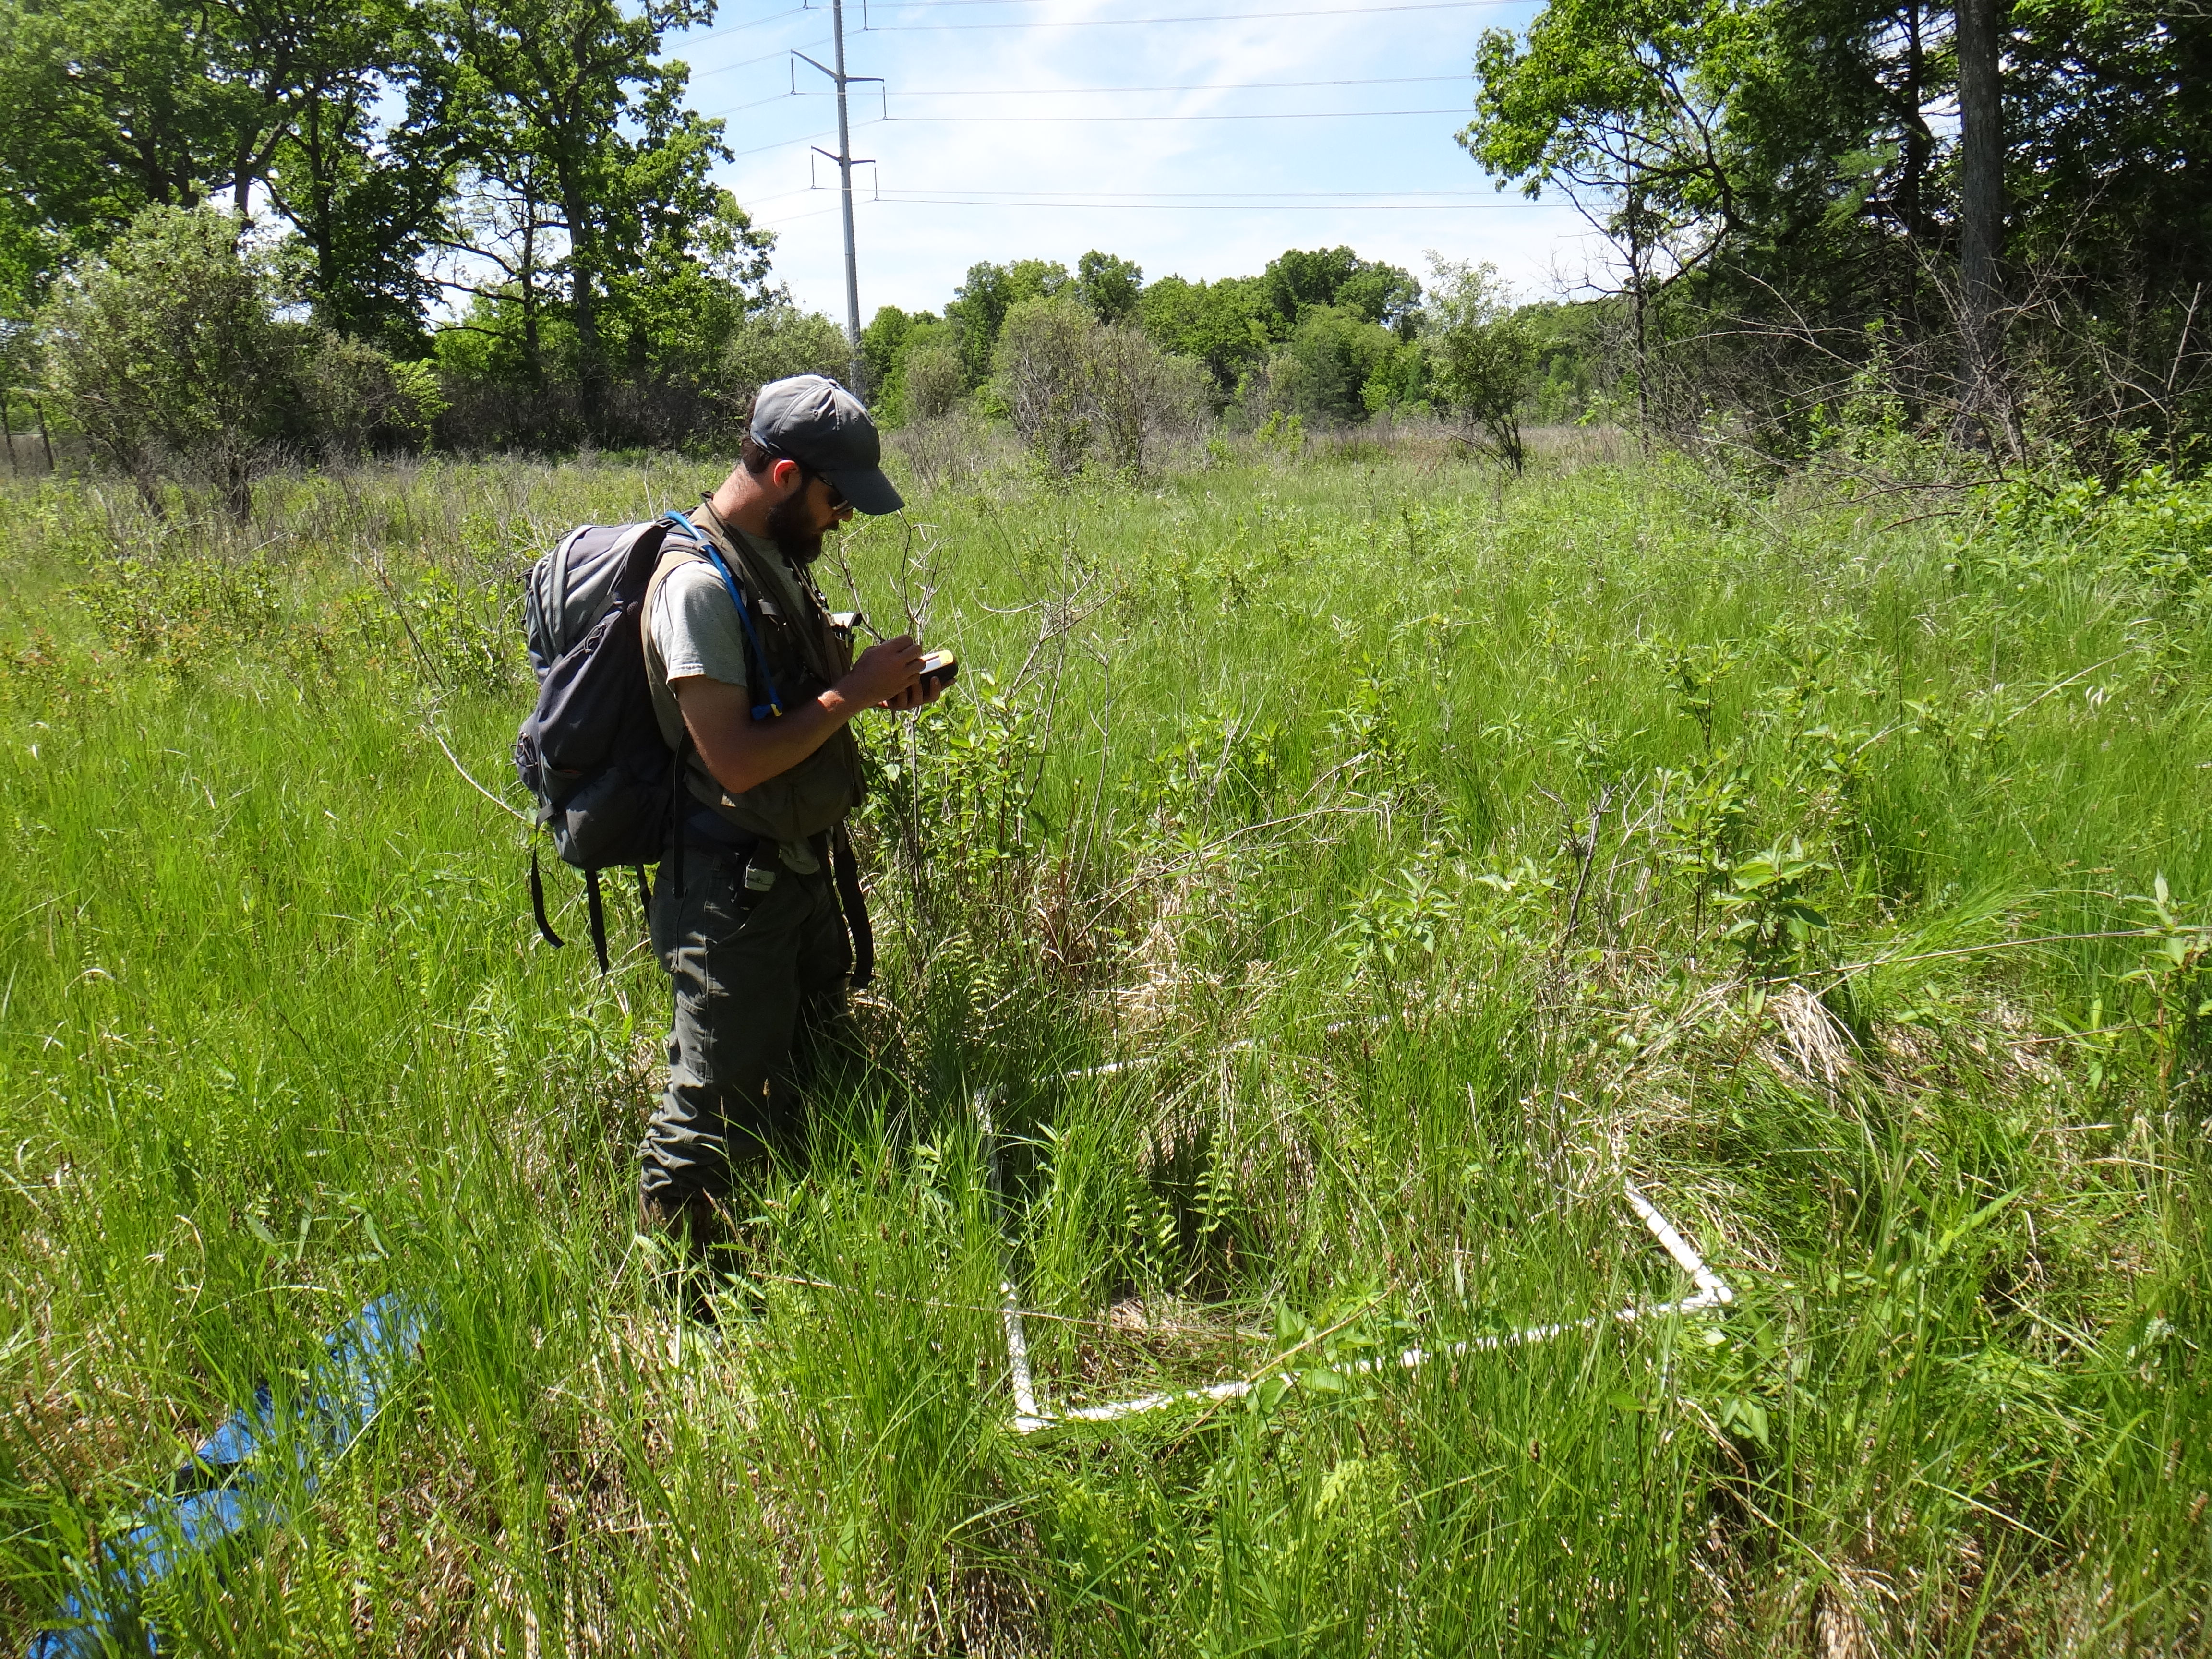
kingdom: Plantae
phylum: Tracheophyta
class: Polypodiopsida
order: Polypodiales
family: Thelypteridaceae
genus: Thelypteris
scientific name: Thelypteris palustris
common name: Marsh fern
